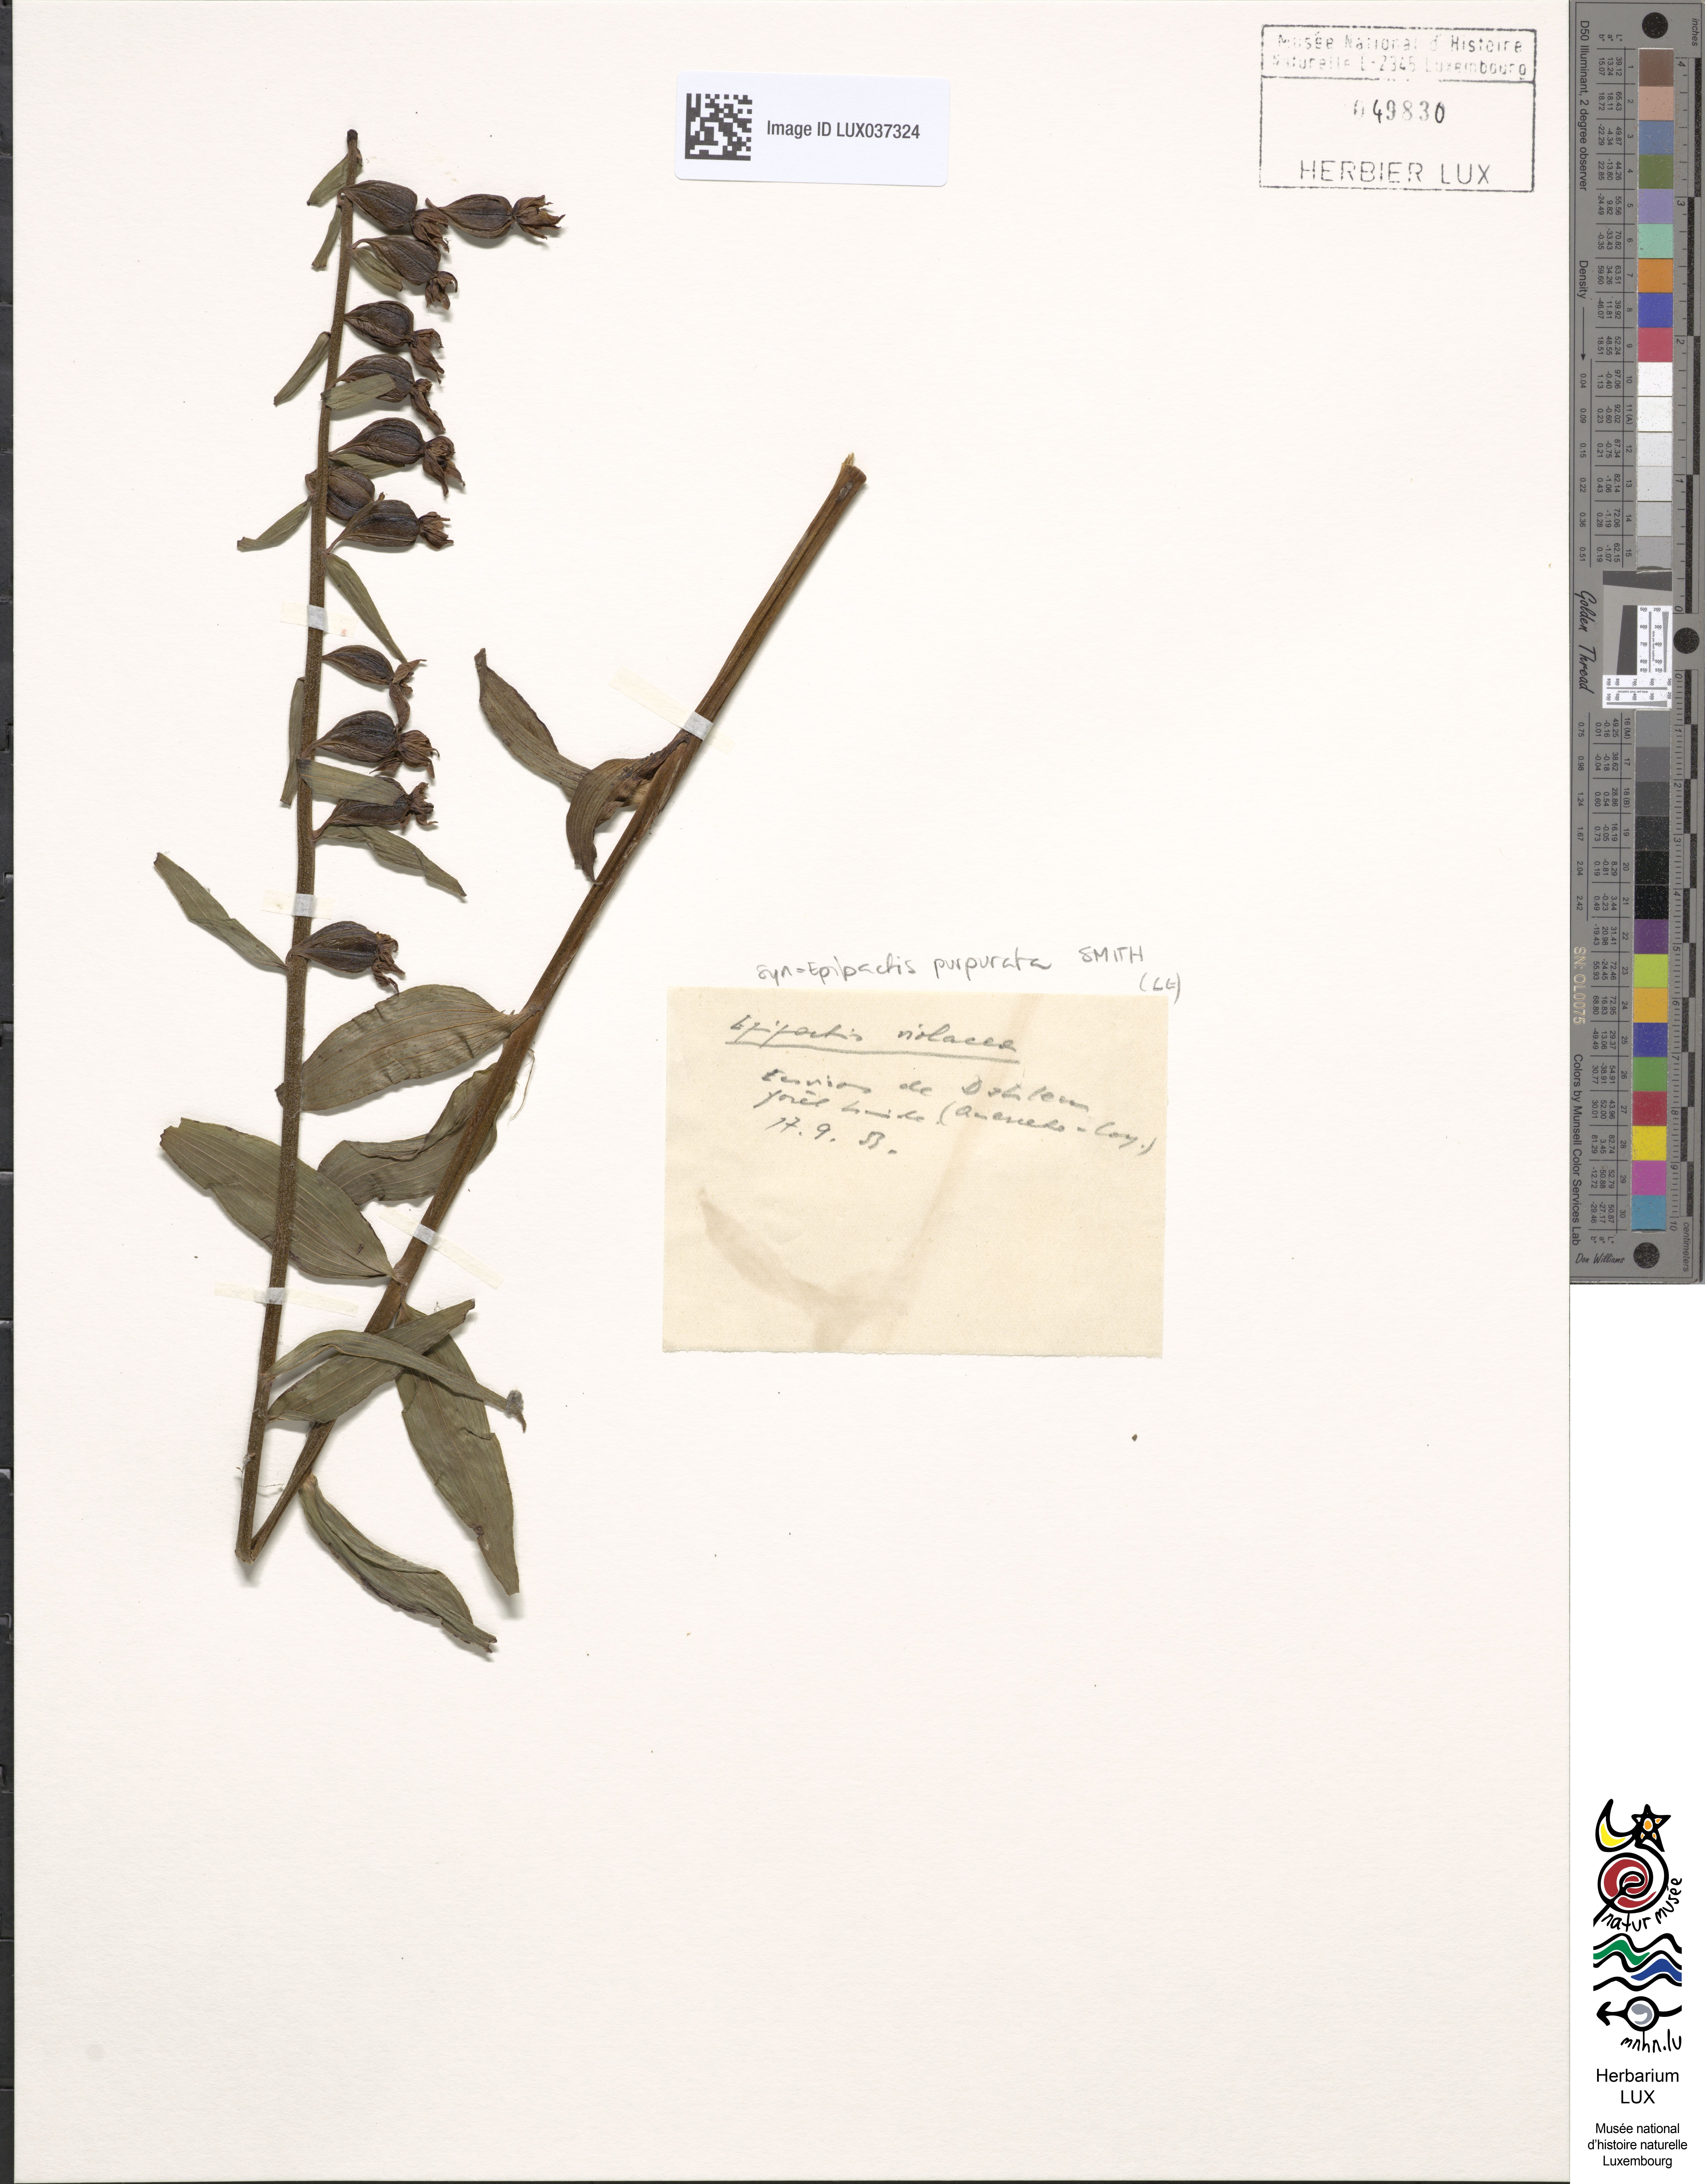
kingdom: Plantae
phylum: Tracheophyta
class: Liliopsida
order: Asparagales
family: Orchidaceae
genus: Epipactis
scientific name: Epipactis purpurata
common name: Violet helleborine
